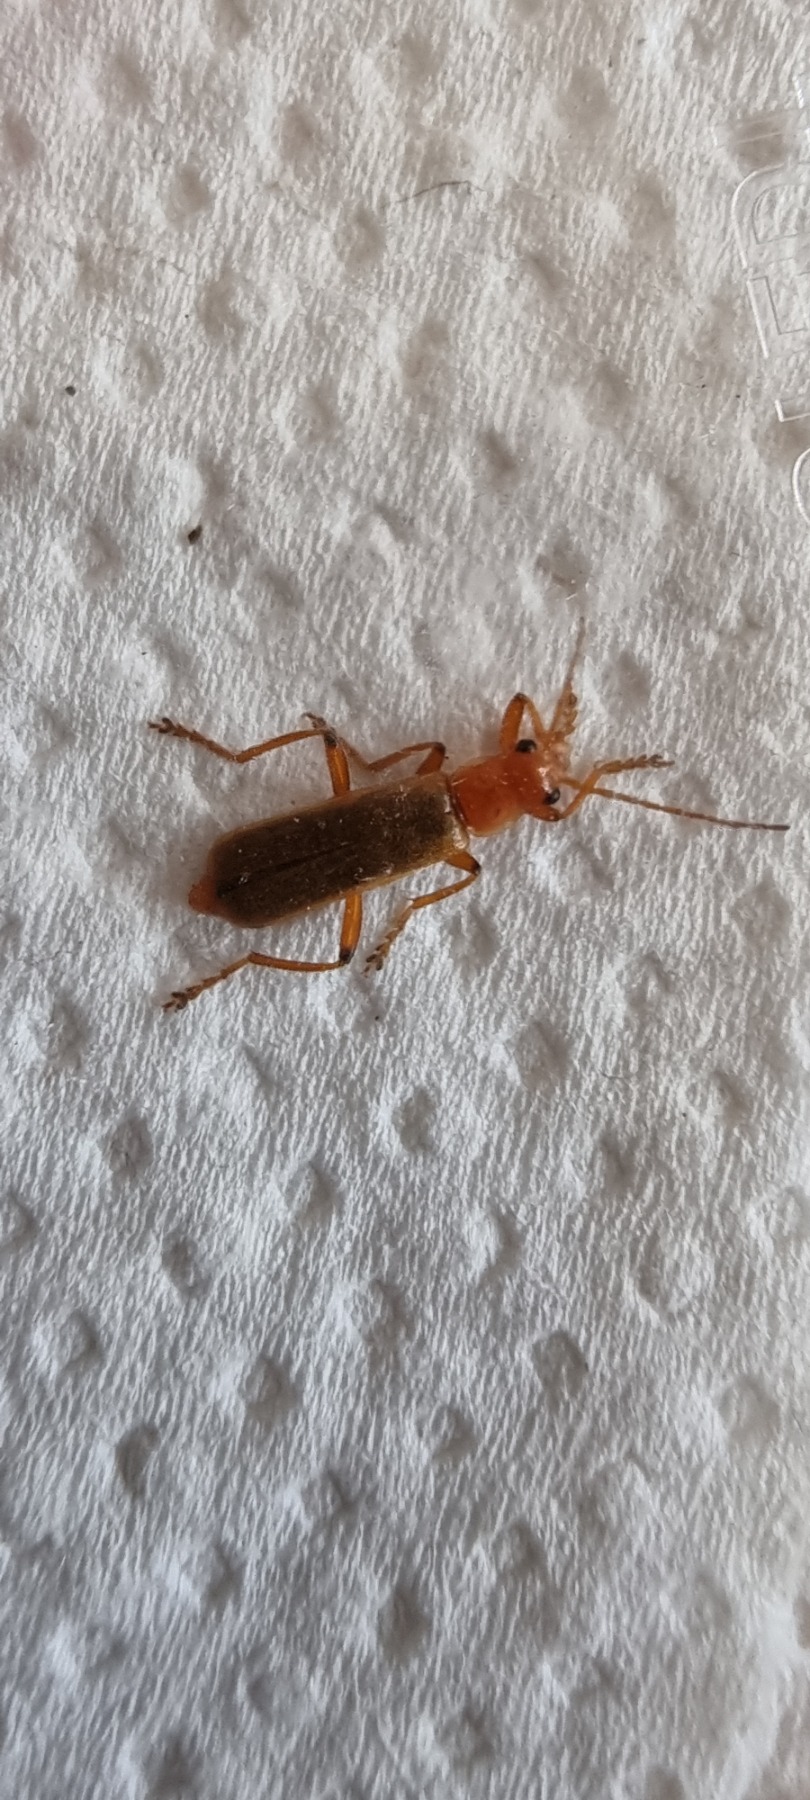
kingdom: Animalia
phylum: Arthropoda
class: Insecta
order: Coleoptera
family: Cantharidae
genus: Cantharis
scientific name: Cantharis
